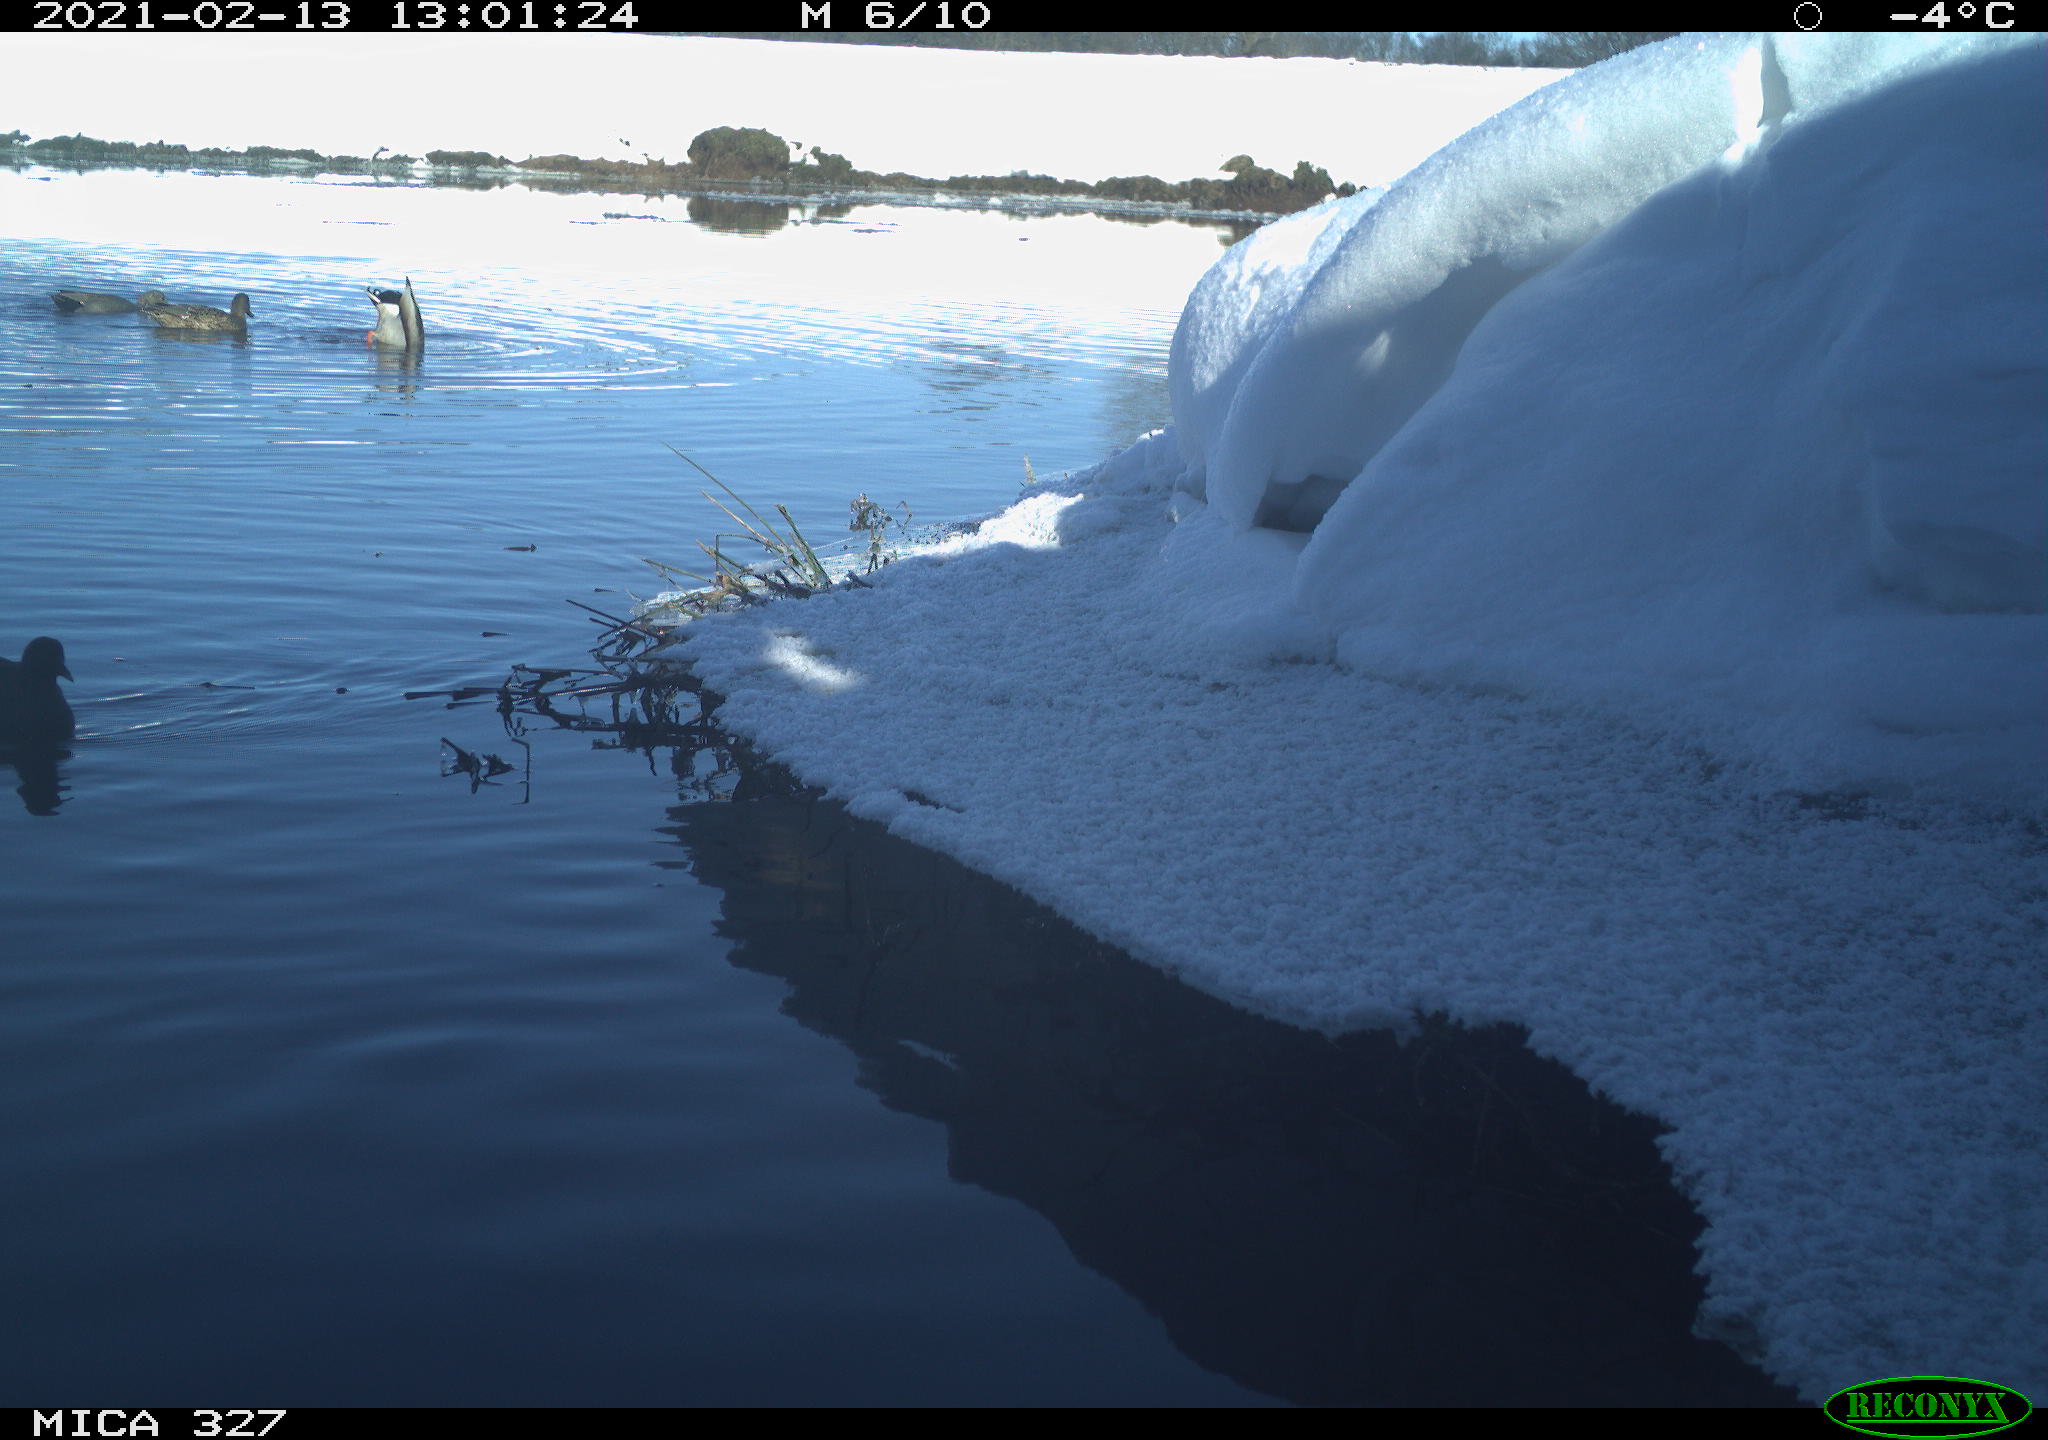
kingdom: Animalia
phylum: Chordata
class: Aves
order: Anseriformes
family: Anatidae
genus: Anas
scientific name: Anas platyrhynchos
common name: Mallard
